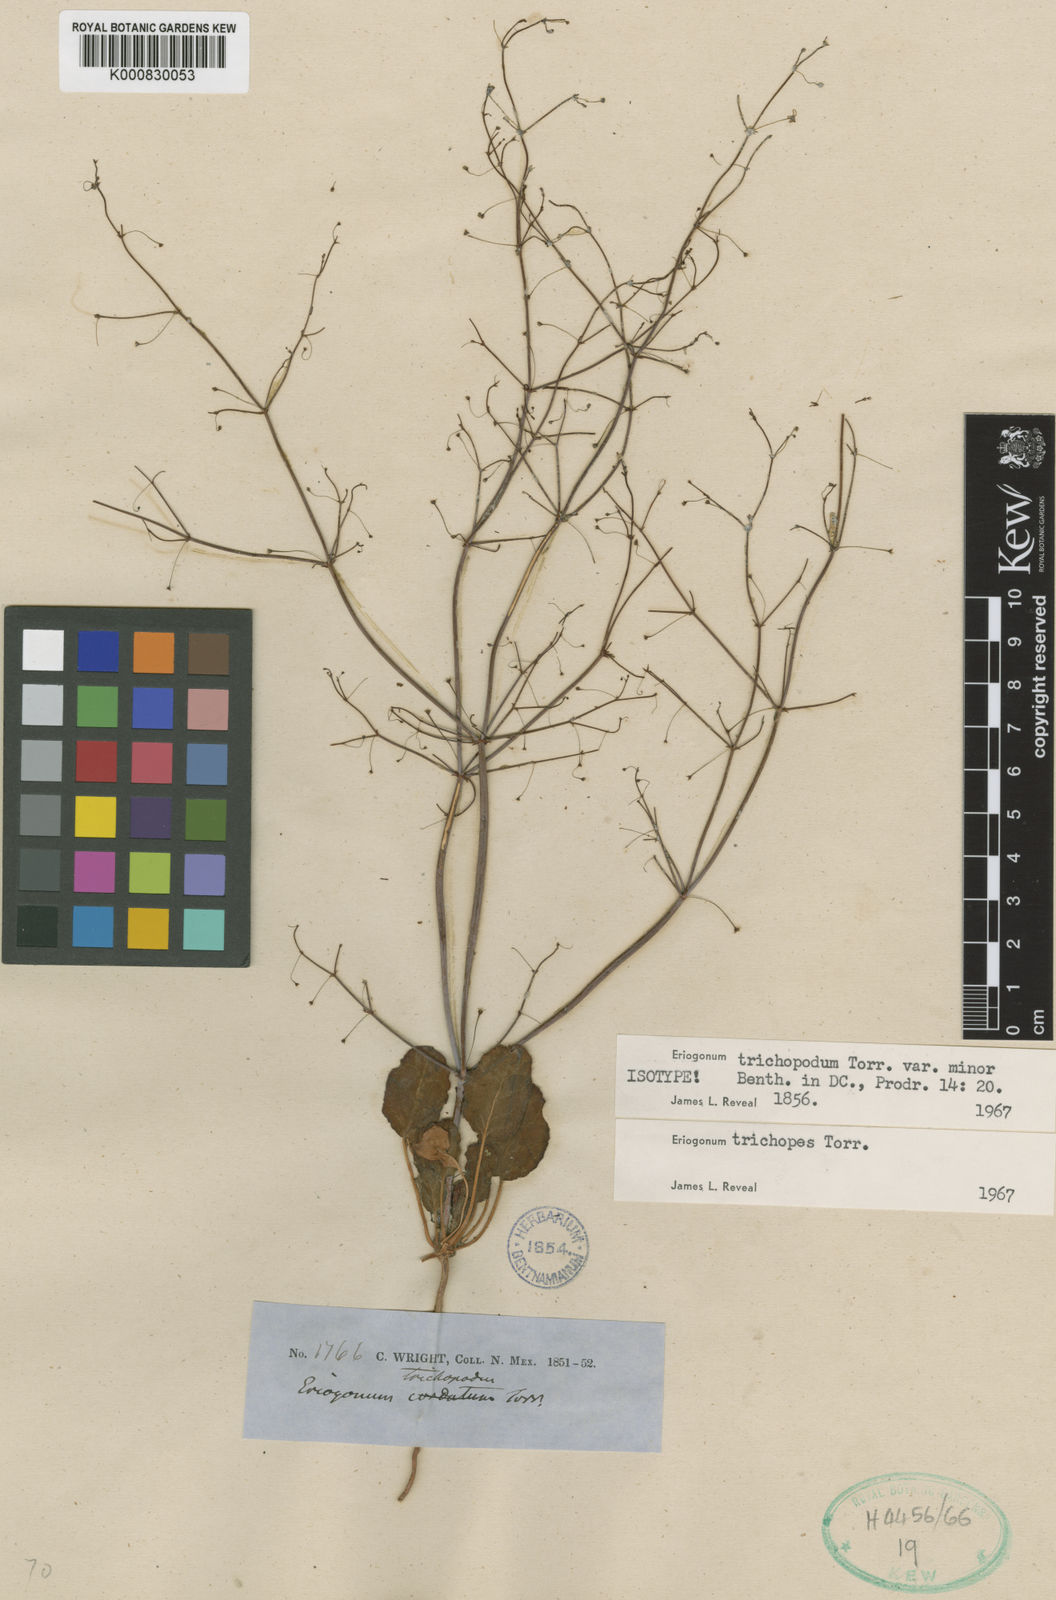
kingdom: Plantae
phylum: Tracheophyta
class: Magnoliopsida
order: Caryophyllales
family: Polygonaceae
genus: Eriogonum
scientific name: Eriogonum trichopes
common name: Little desert trumpet
